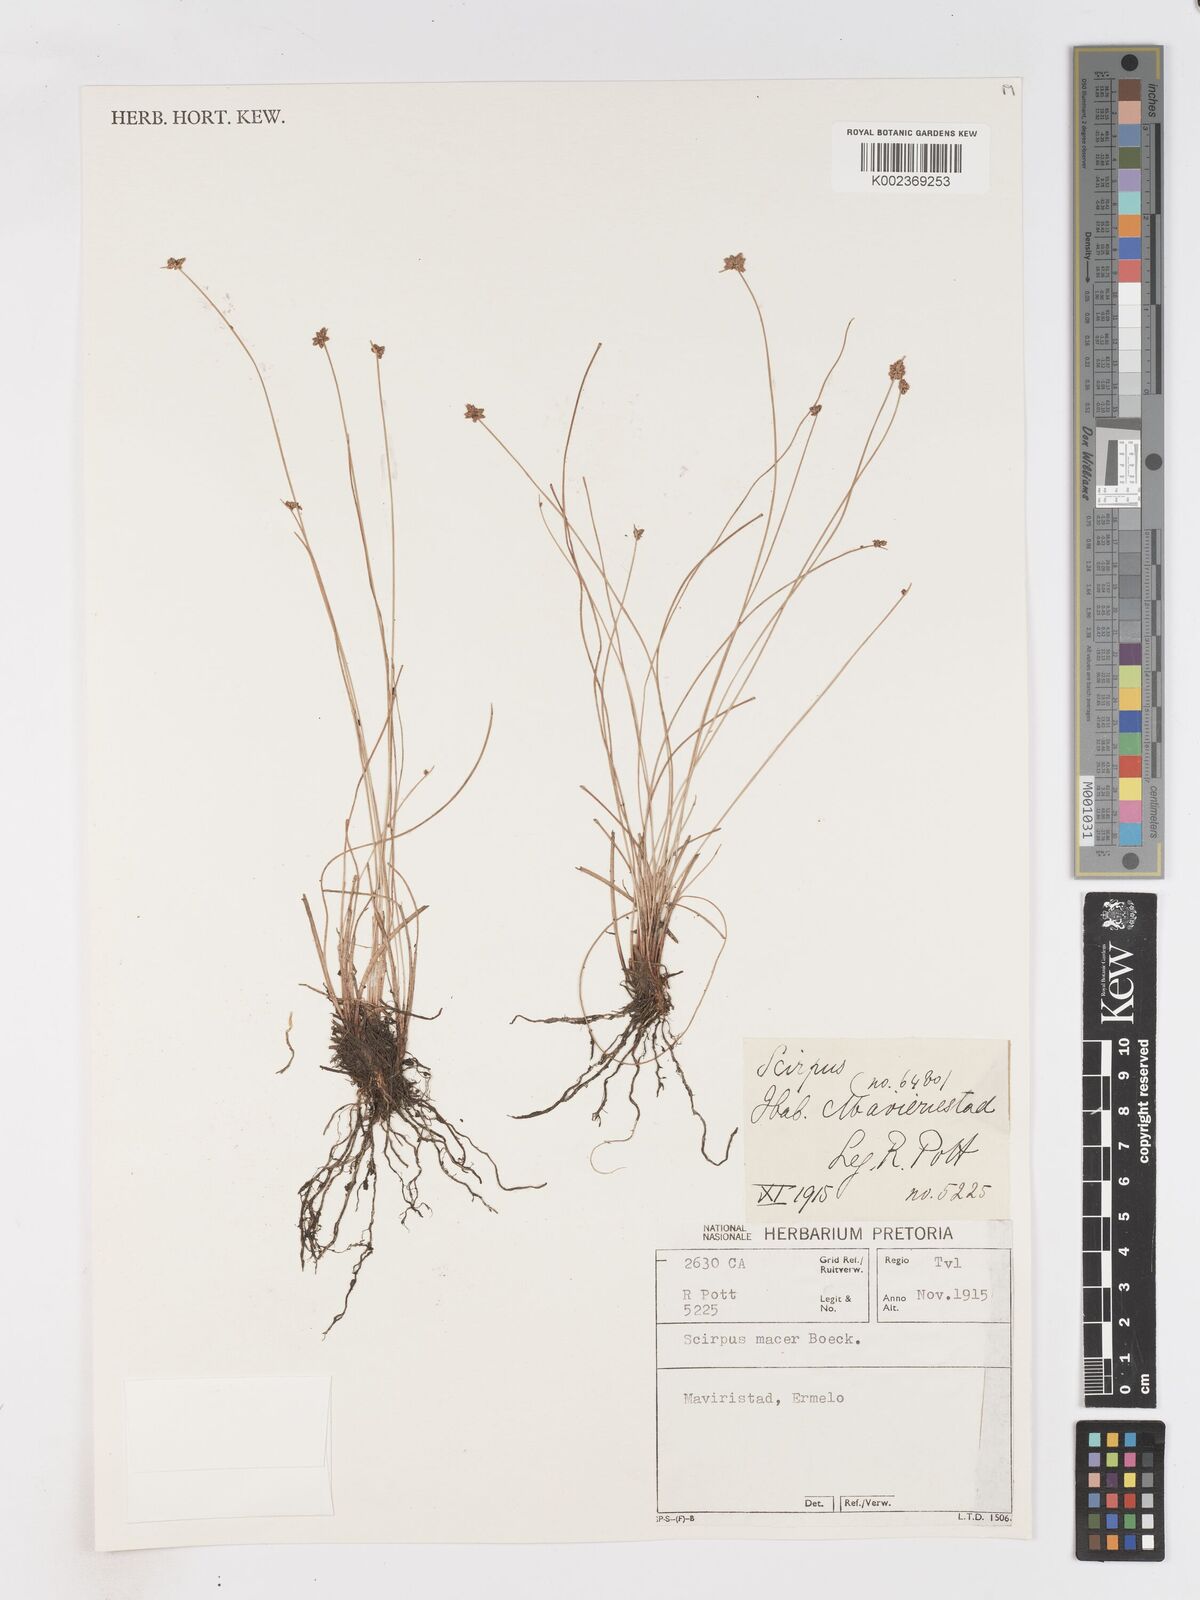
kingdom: Plantae
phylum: Tracheophyta
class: Liliopsida
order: Poales
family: Cyperaceae
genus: Isolepis
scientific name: Isolepis costata
